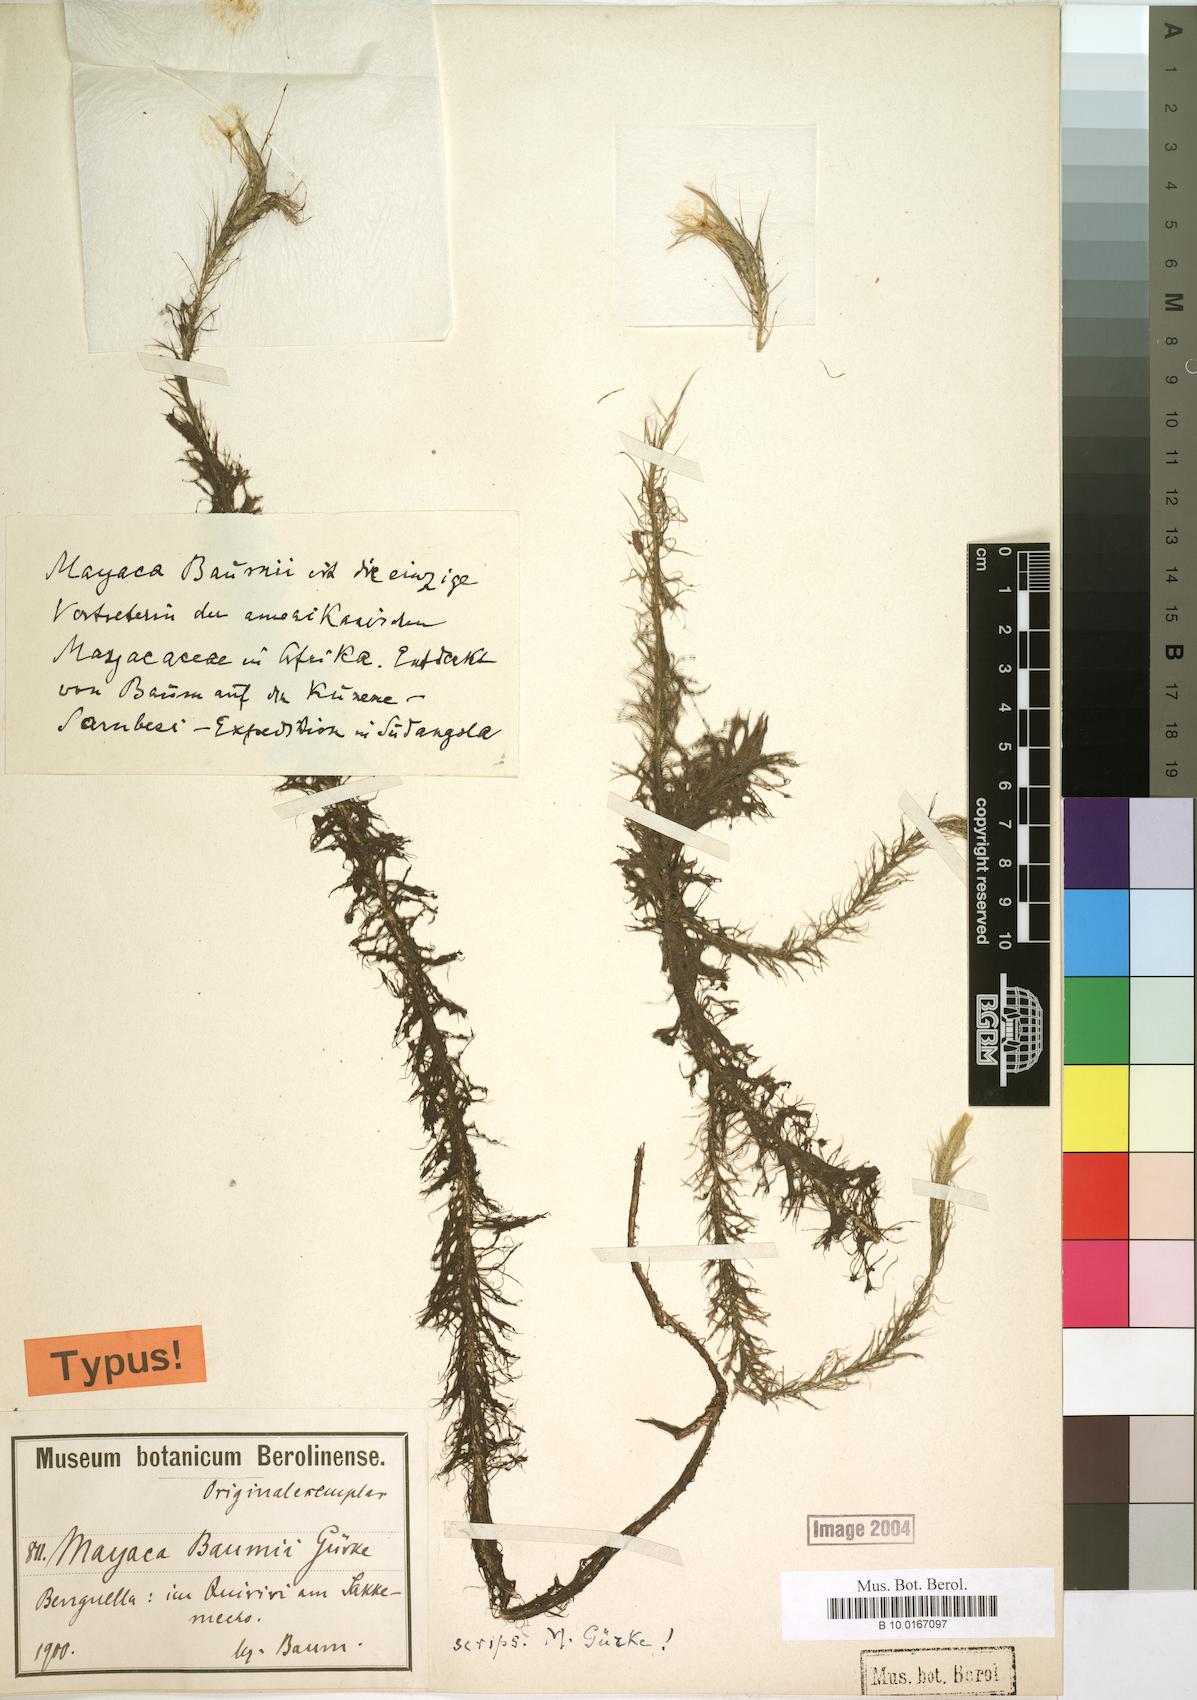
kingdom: Plantae
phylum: Tracheophyta
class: Liliopsida
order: Poales
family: Mayacaceae
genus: Mayaca
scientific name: Mayaca baumii
